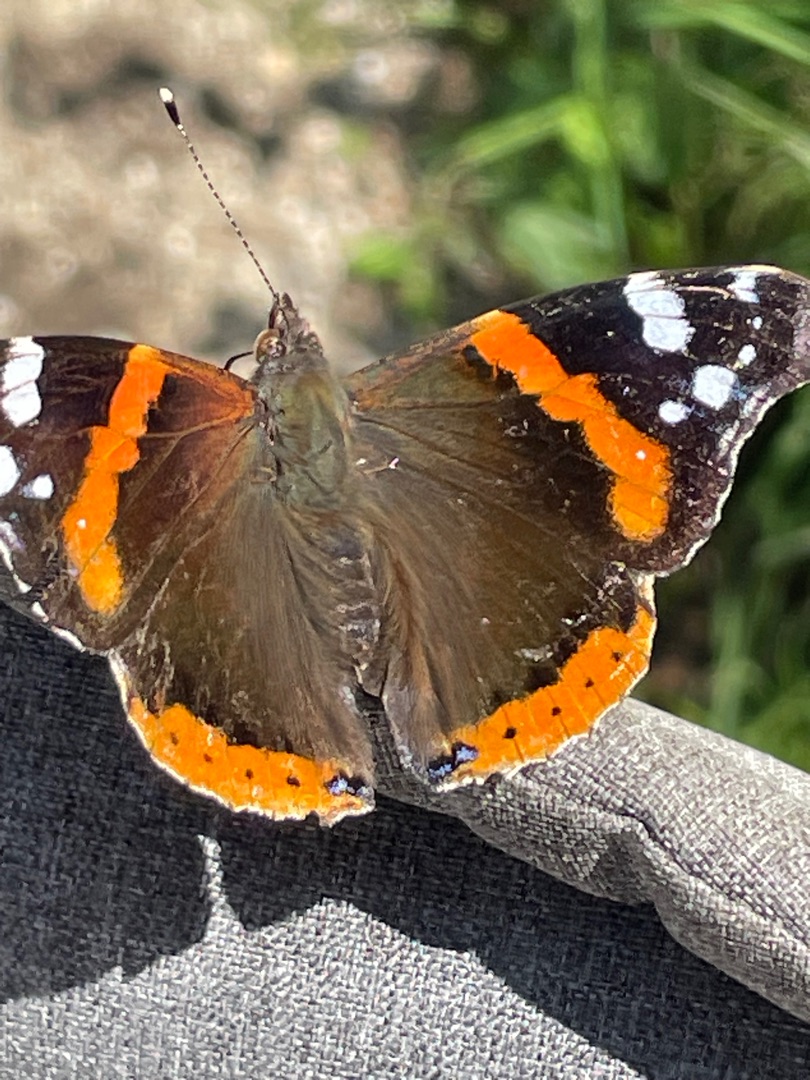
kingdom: Animalia
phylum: Arthropoda
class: Insecta
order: Lepidoptera
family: Nymphalidae
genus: Vanessa
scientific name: Vanessa atalanta
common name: Admiral
